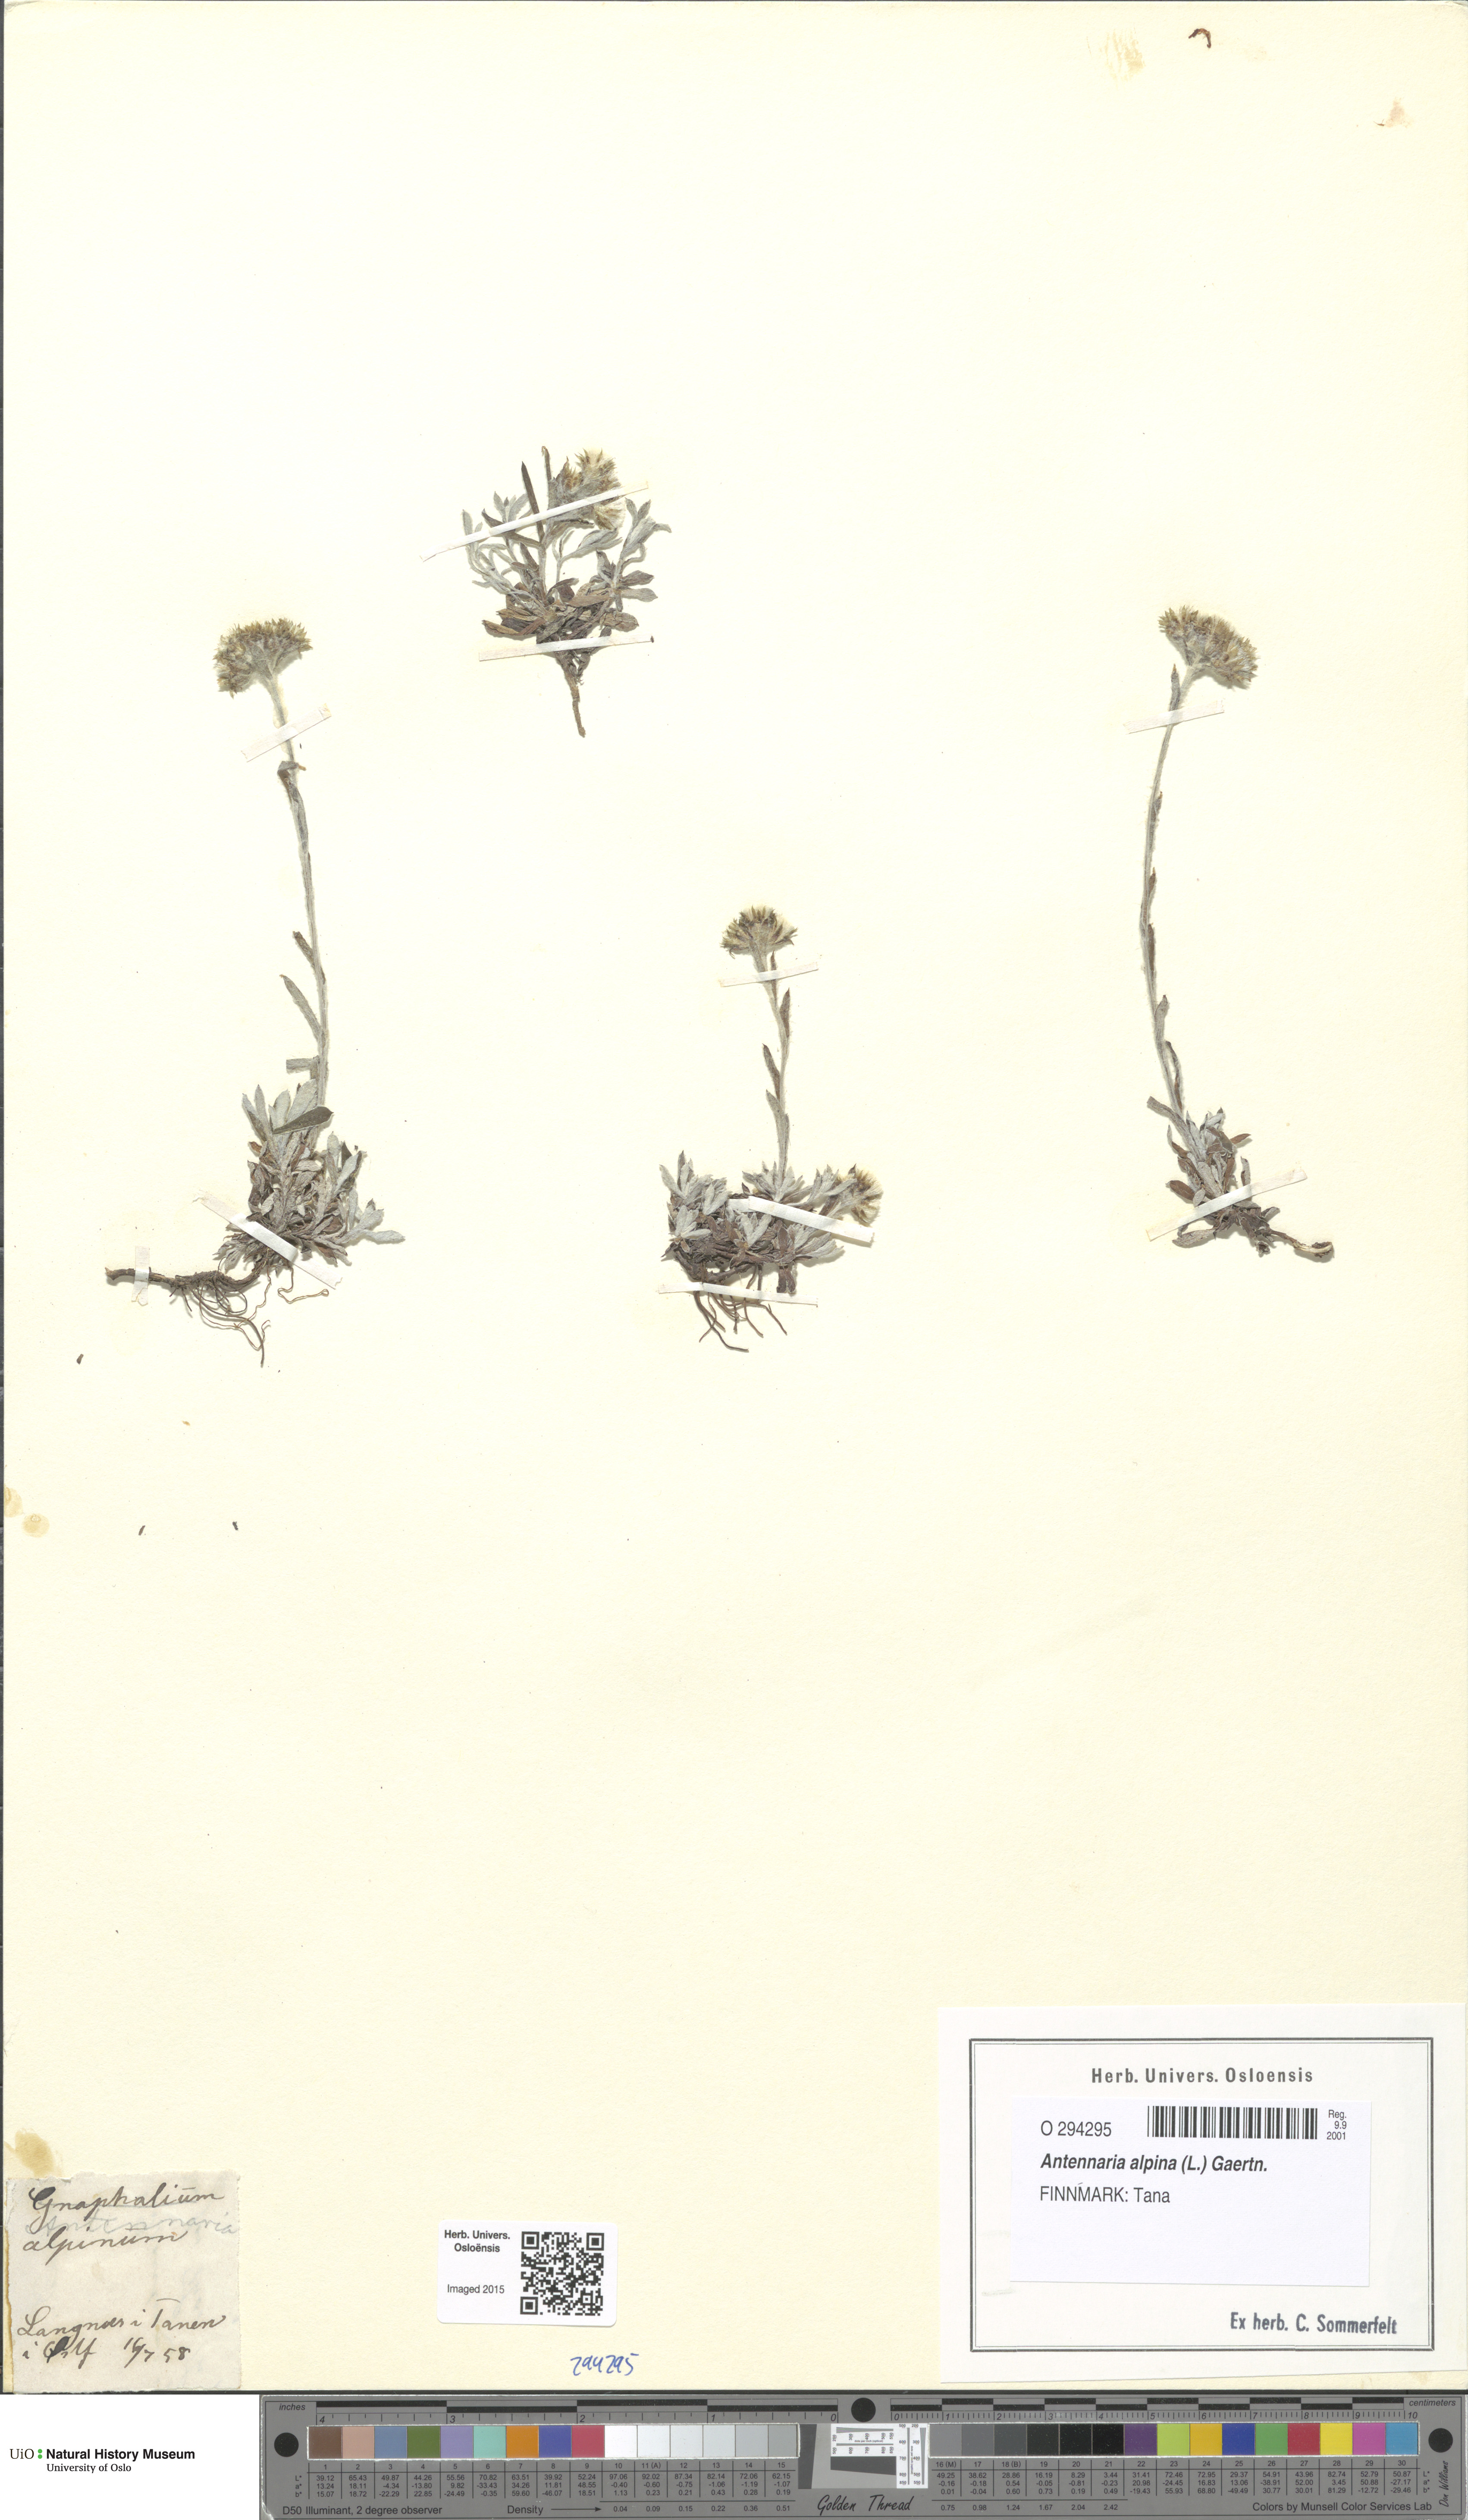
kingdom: Plantae
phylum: Tracheophyta
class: Magnoliopsida
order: Asterales
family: Asteraceae
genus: Antennaria
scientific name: Antennaria alpina
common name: Alpine pussytoes
